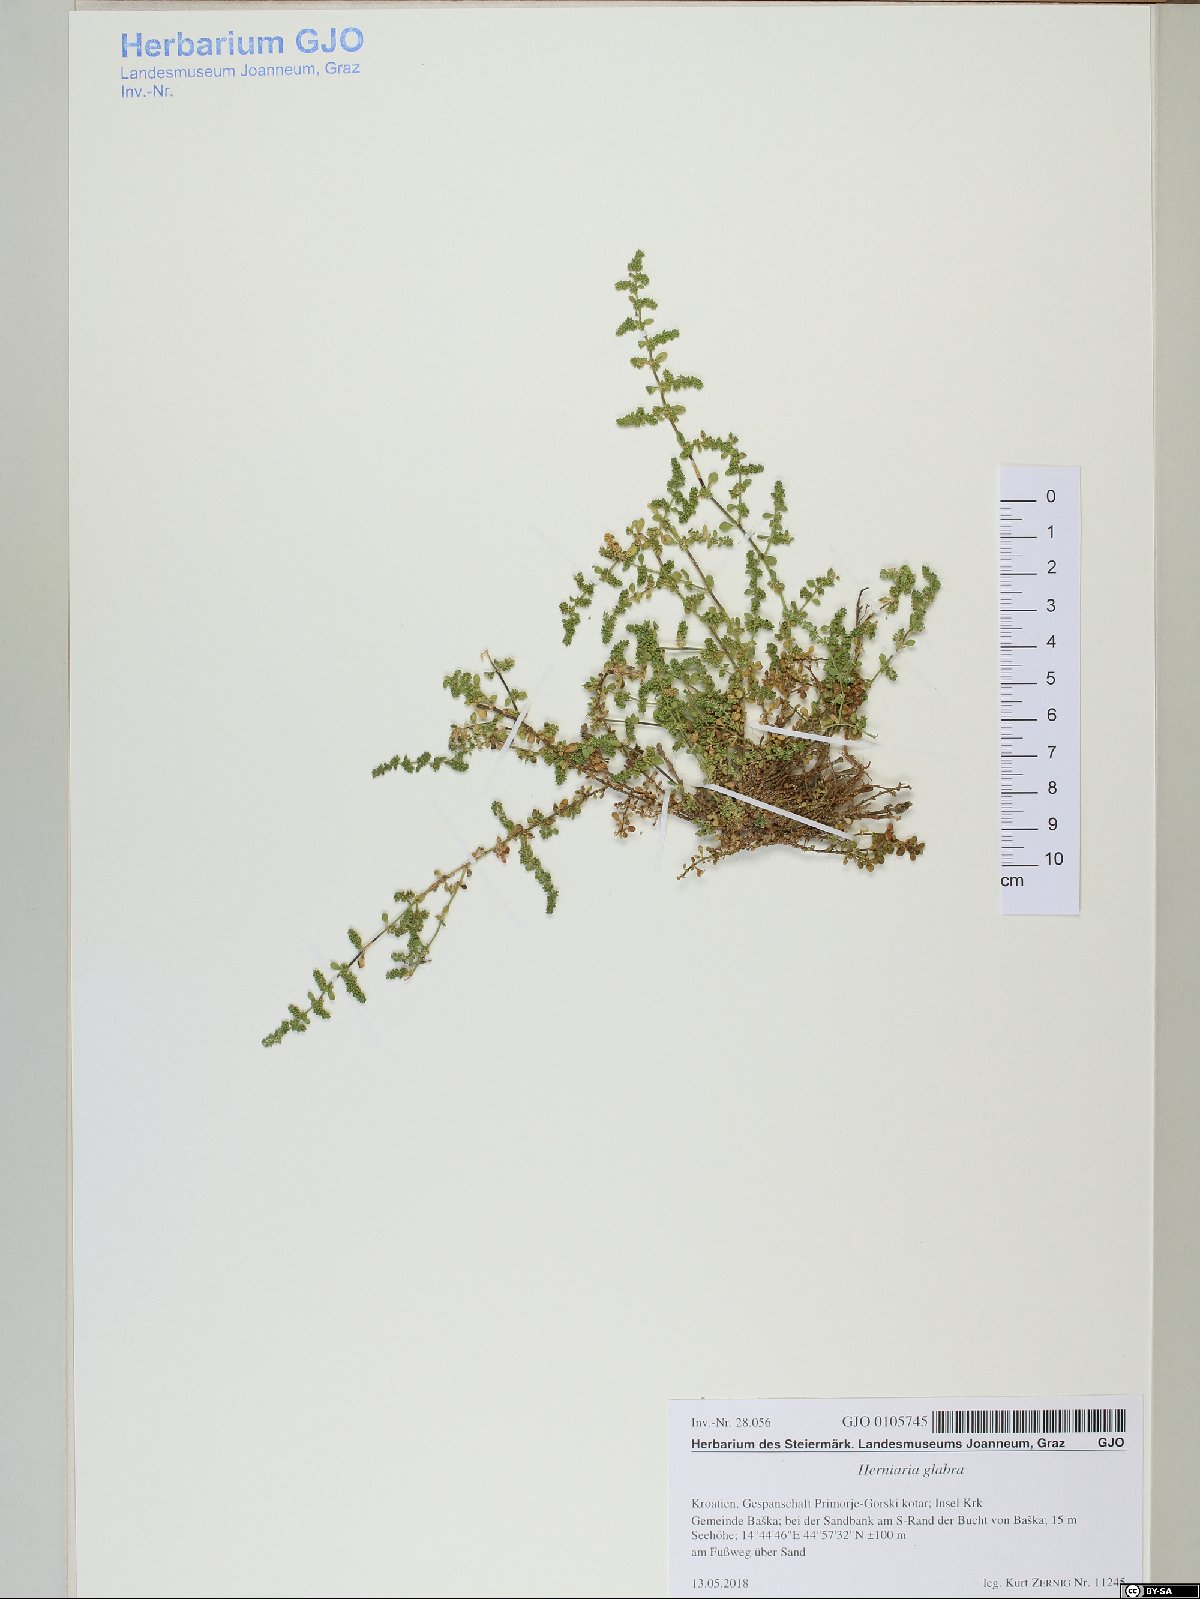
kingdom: Plantae
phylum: Tracheophyta
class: Magnoliopsida
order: Caryophyllales
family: Caryophyllaceae
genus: Herniaria
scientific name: Herniaria glabra
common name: Smooth rupturewort
